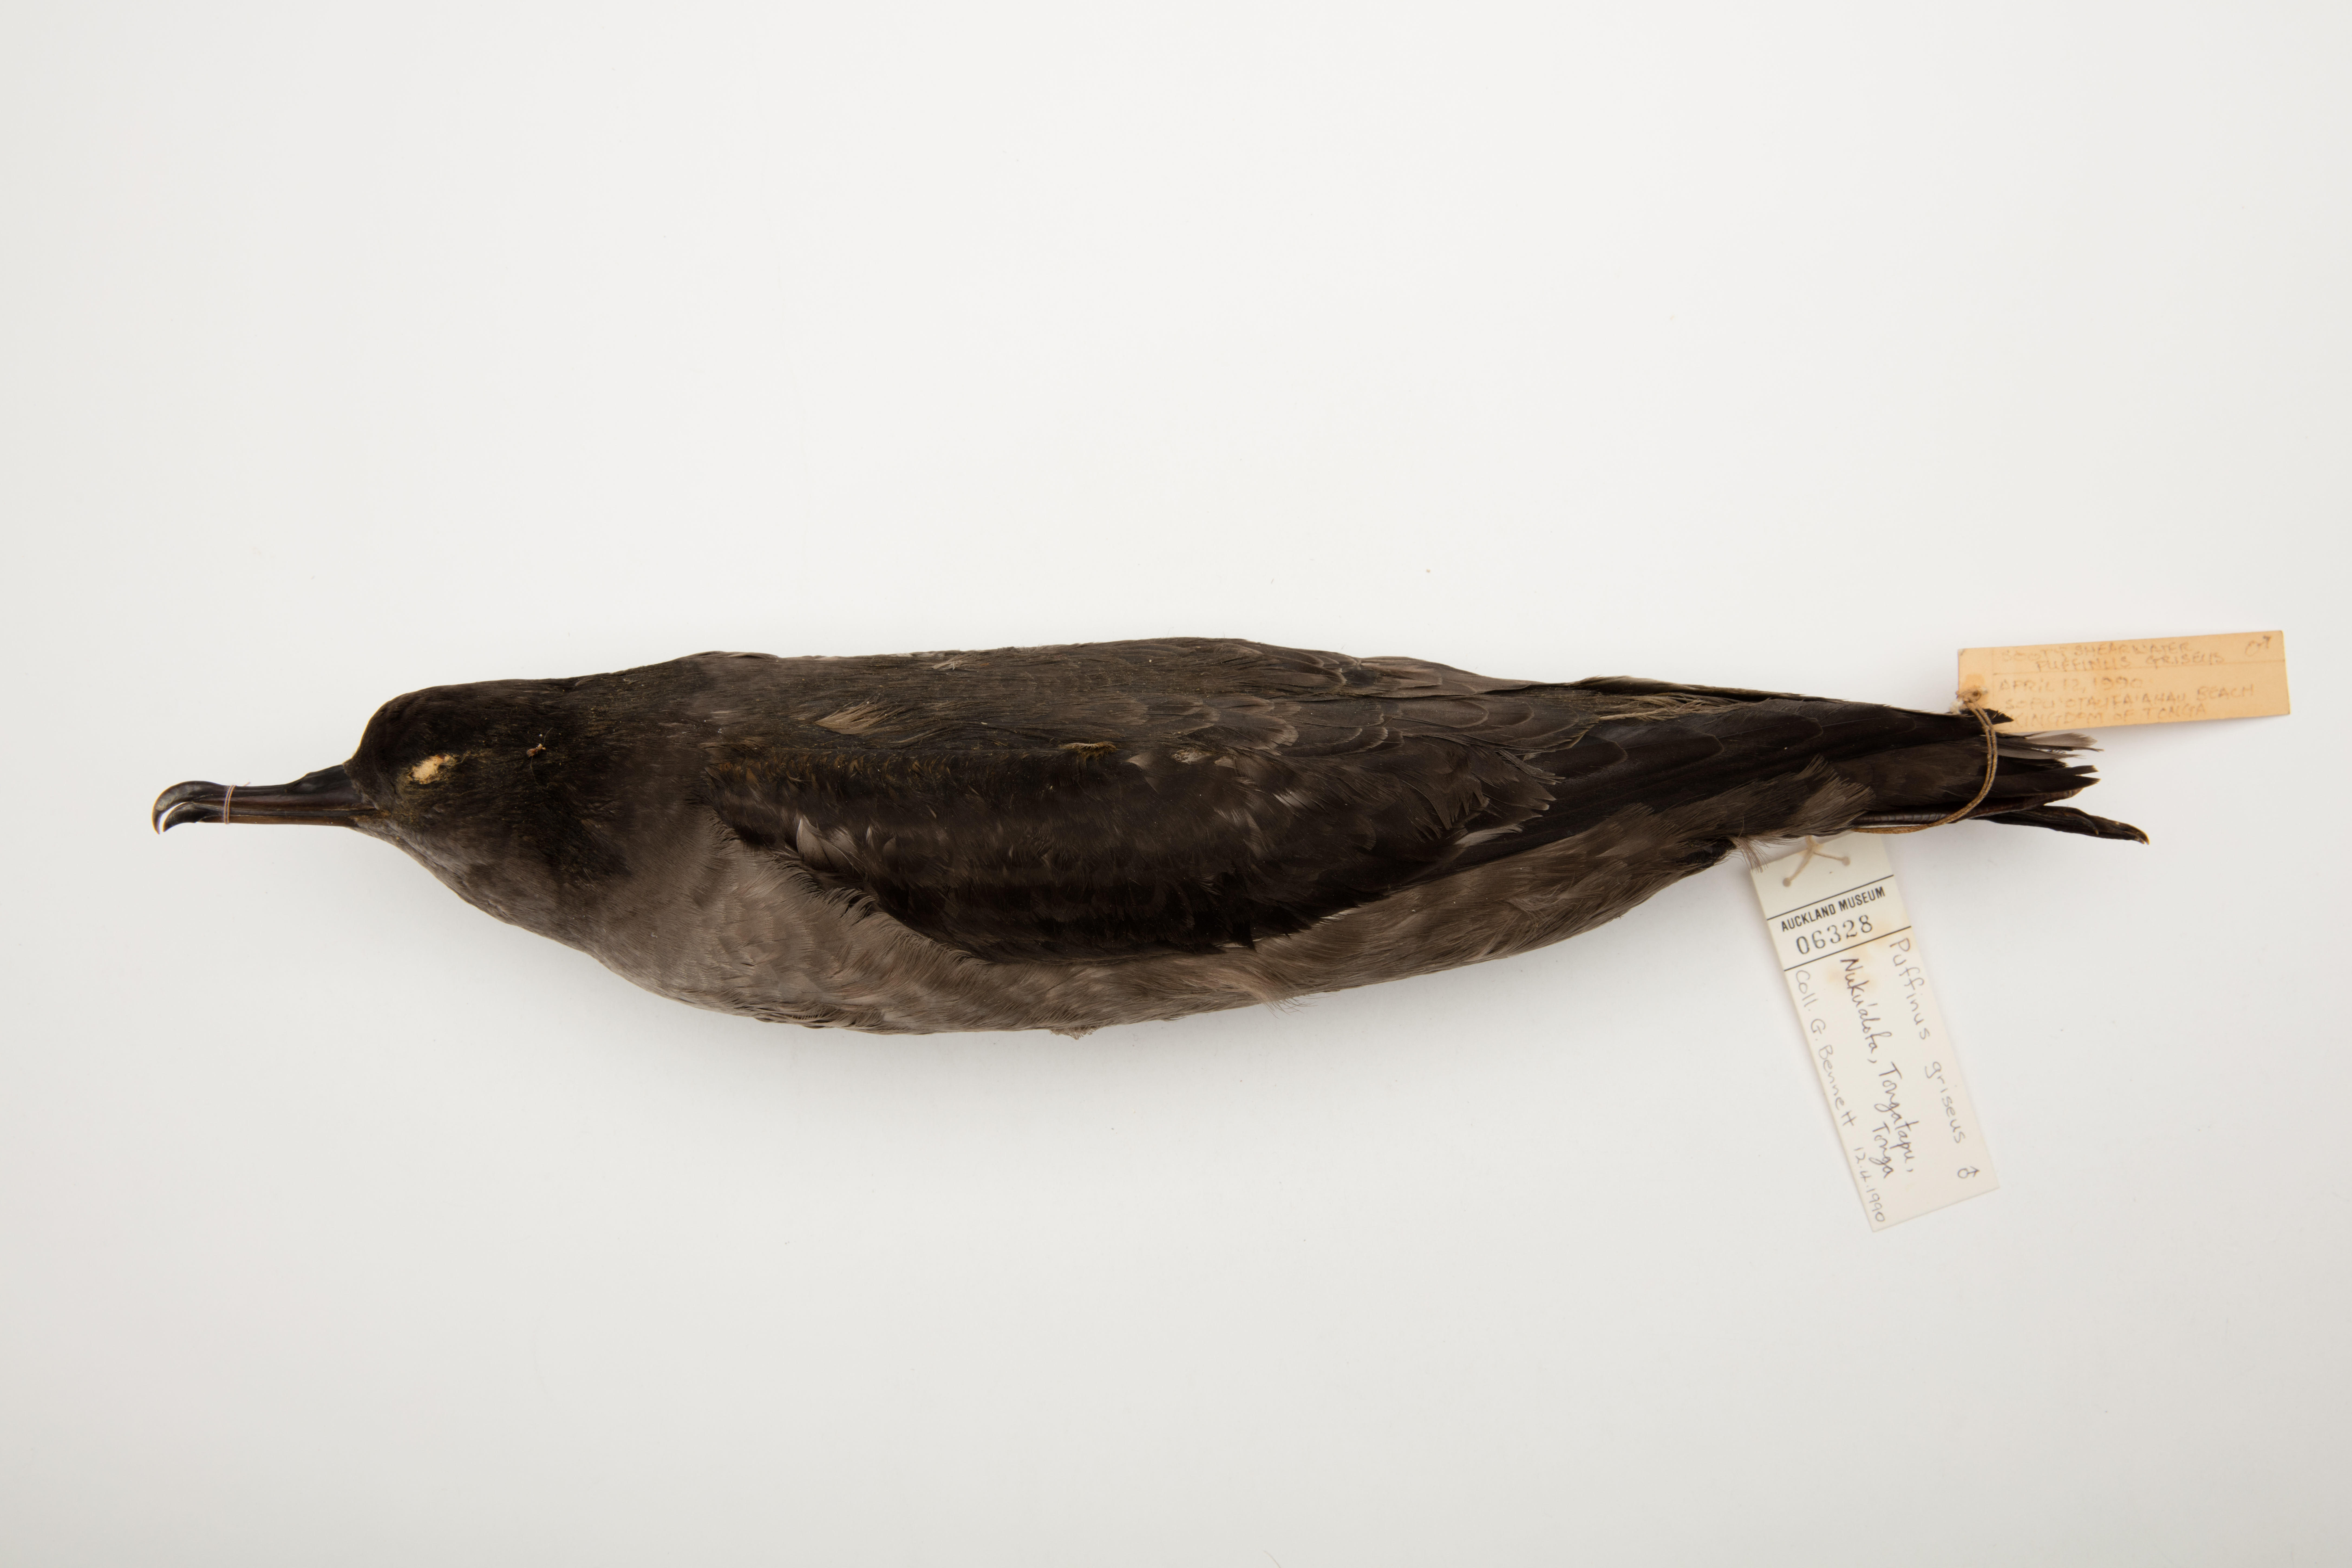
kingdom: Animalia
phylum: Chordata
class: Aves
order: Procellariiformes
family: Procellariidae
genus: Puffinus
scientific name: Puffinus griseus
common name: Sooty shearwater
